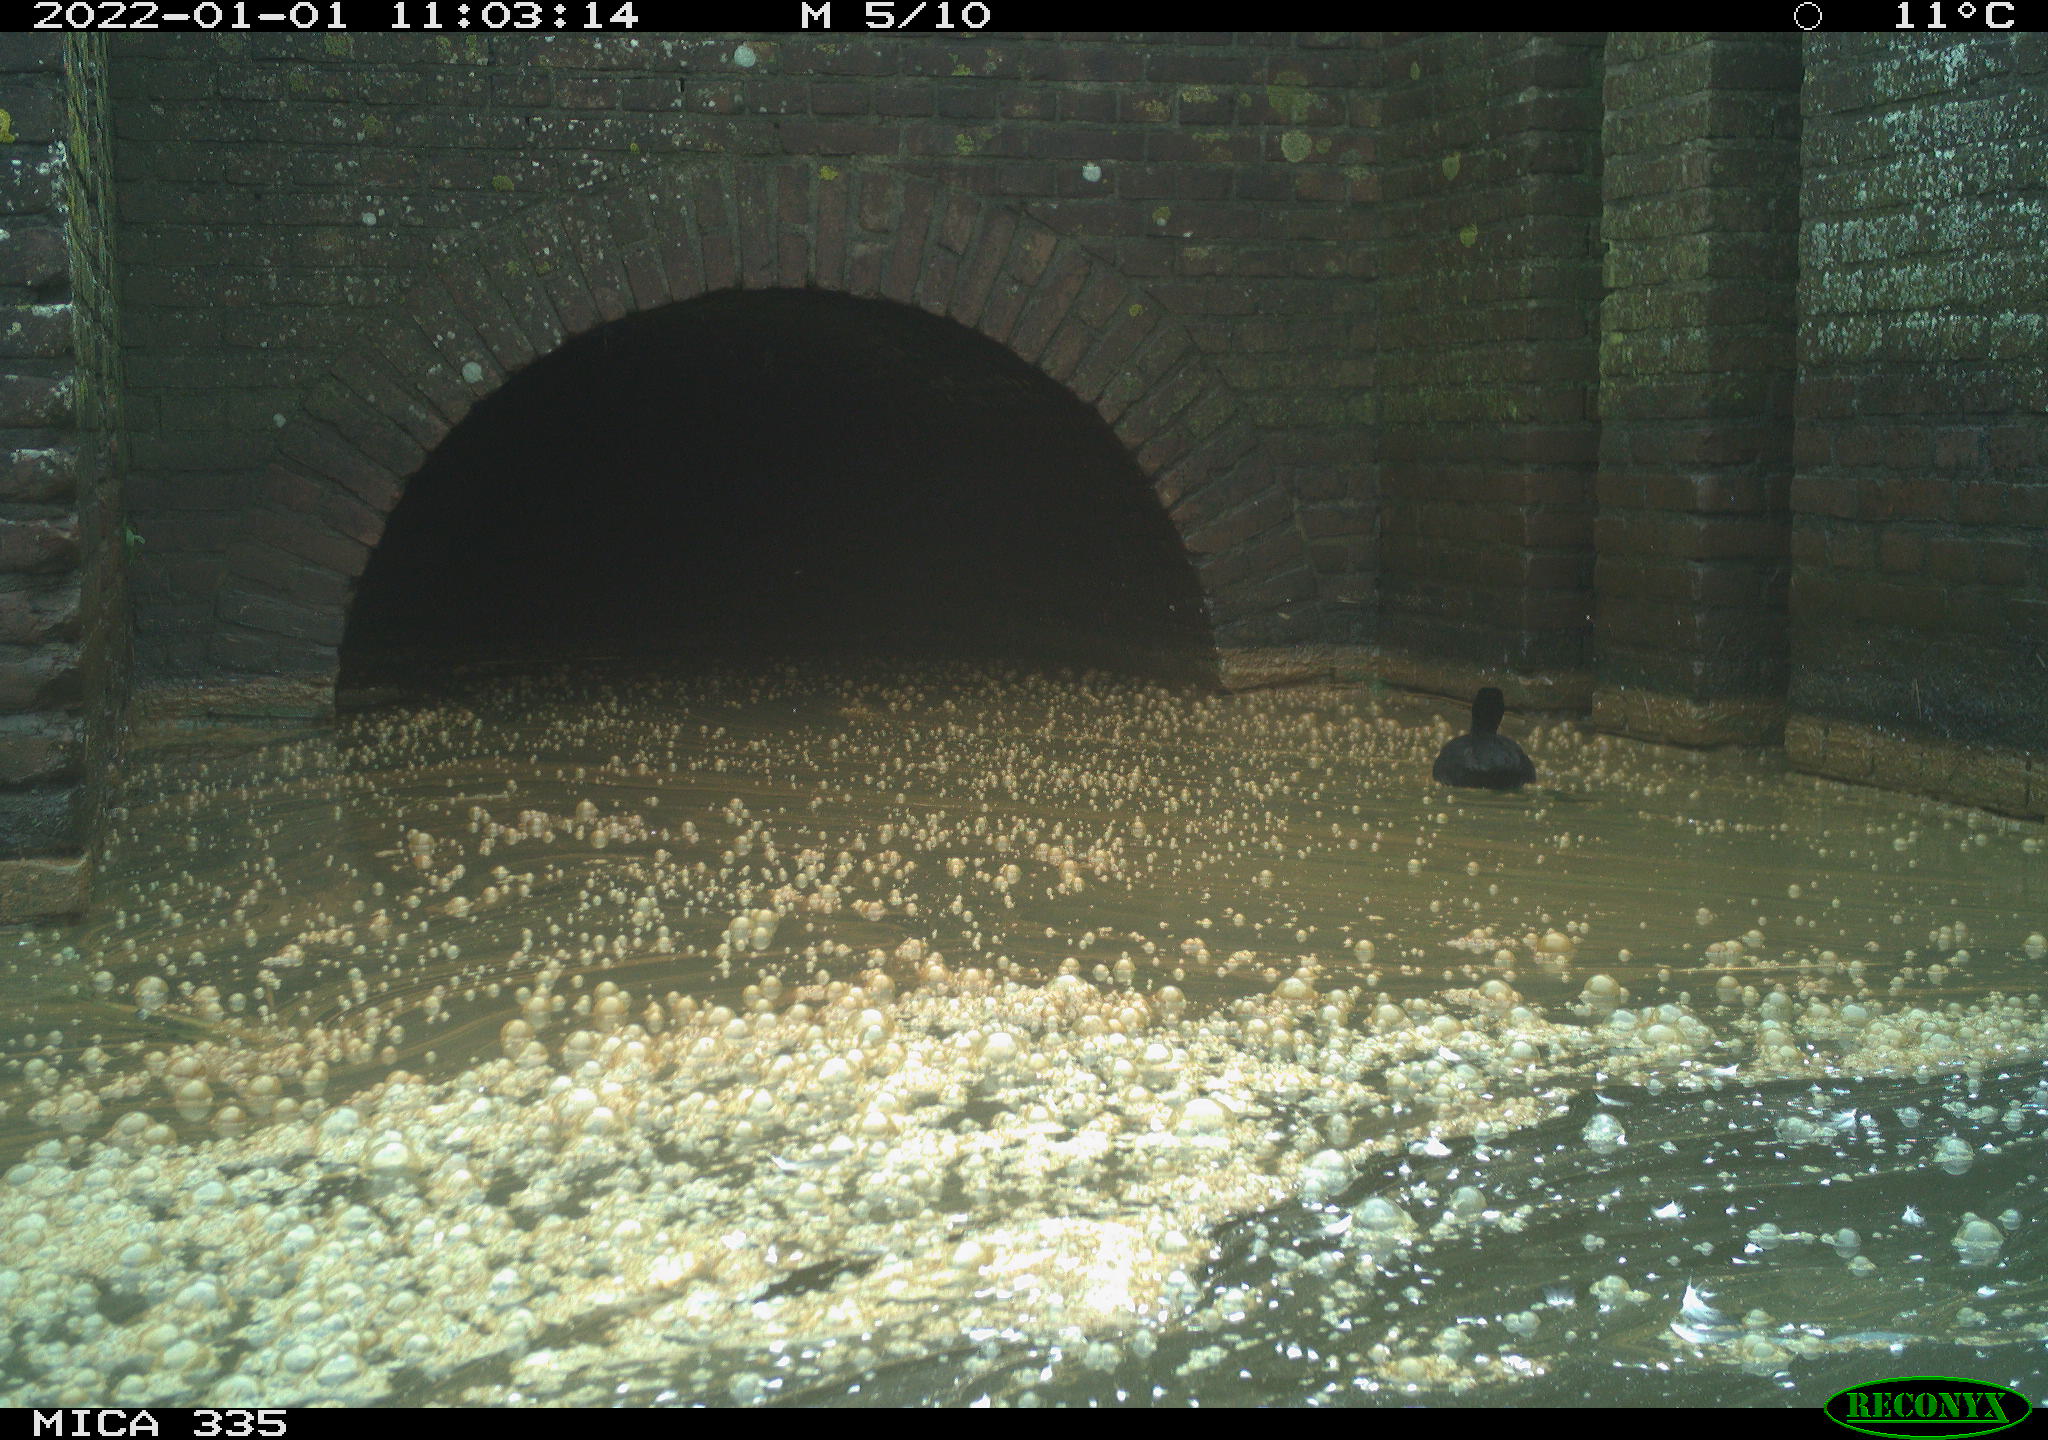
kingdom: Animalia
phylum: Chordata
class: Aves
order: Gruiformes
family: Rallidae
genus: Fulica
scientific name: Fulica atra
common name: Eurasian coot
